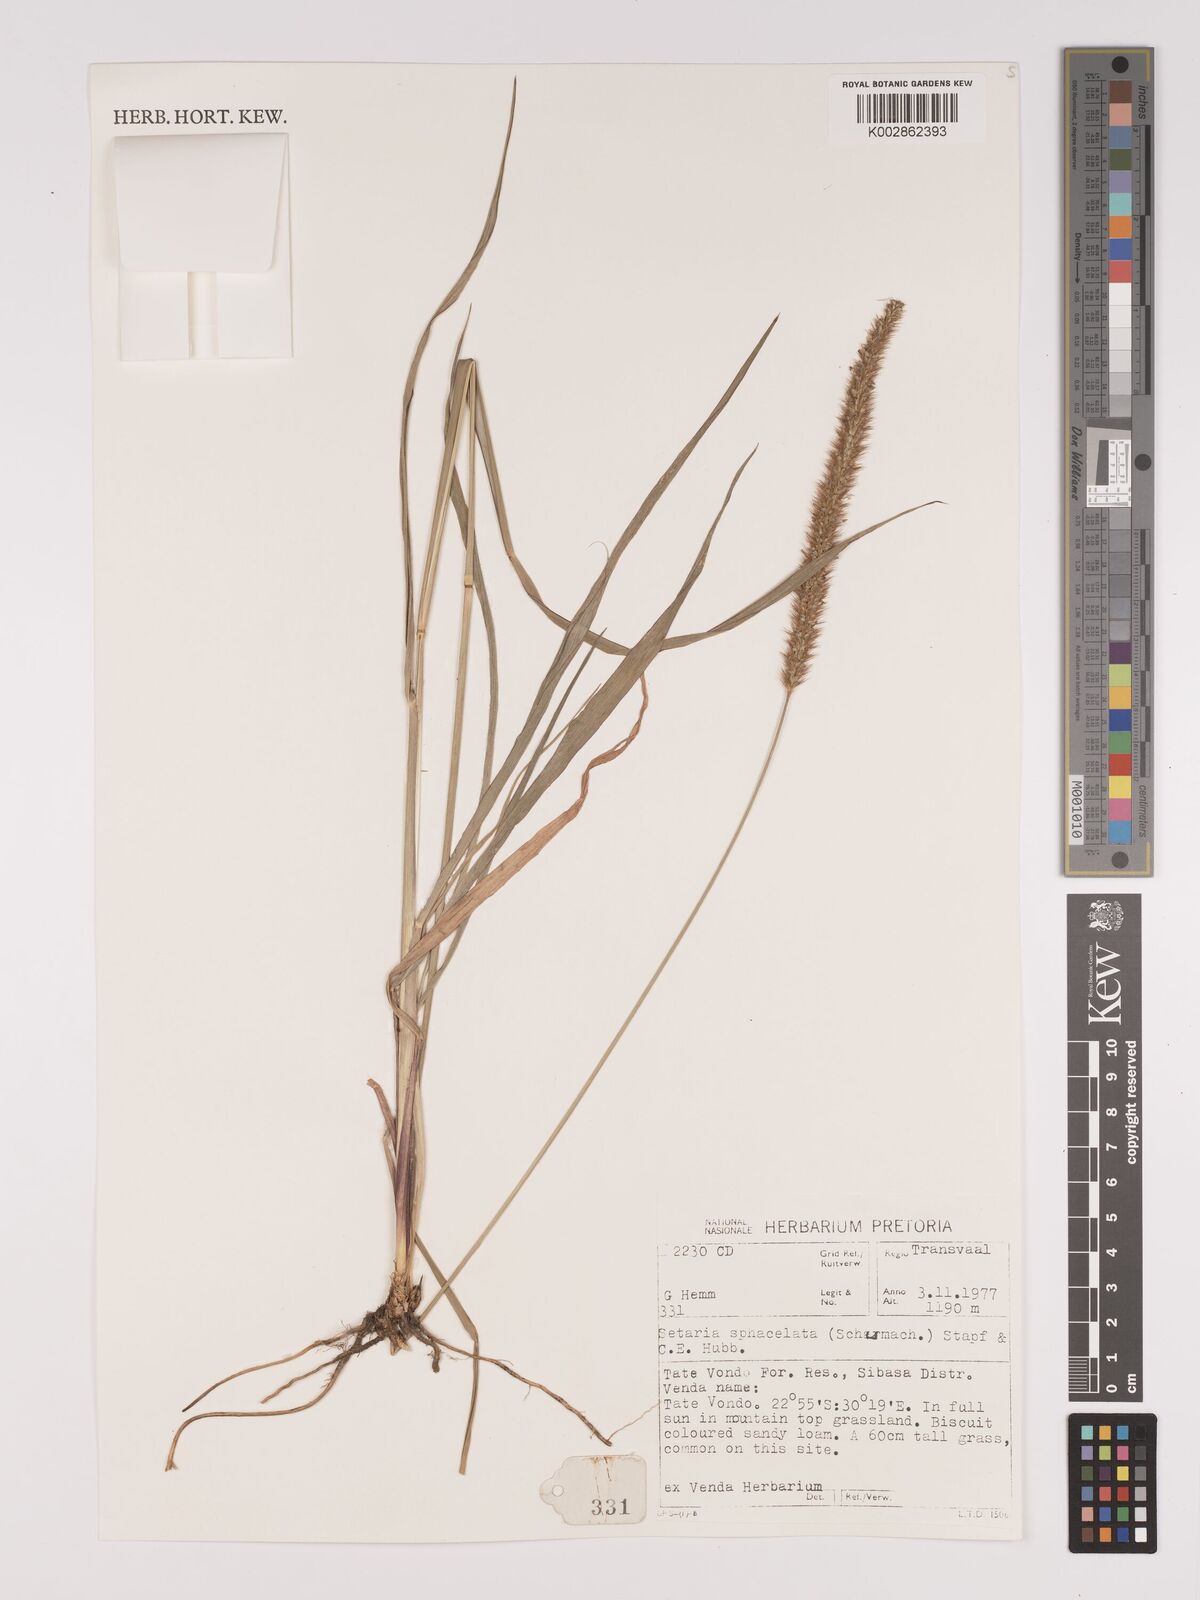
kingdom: Plantae
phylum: Tracheophyta
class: Liliopsida
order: Poales
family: Poaceae
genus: Setaria
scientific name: Setaria sphacelata
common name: African bristlegrass
